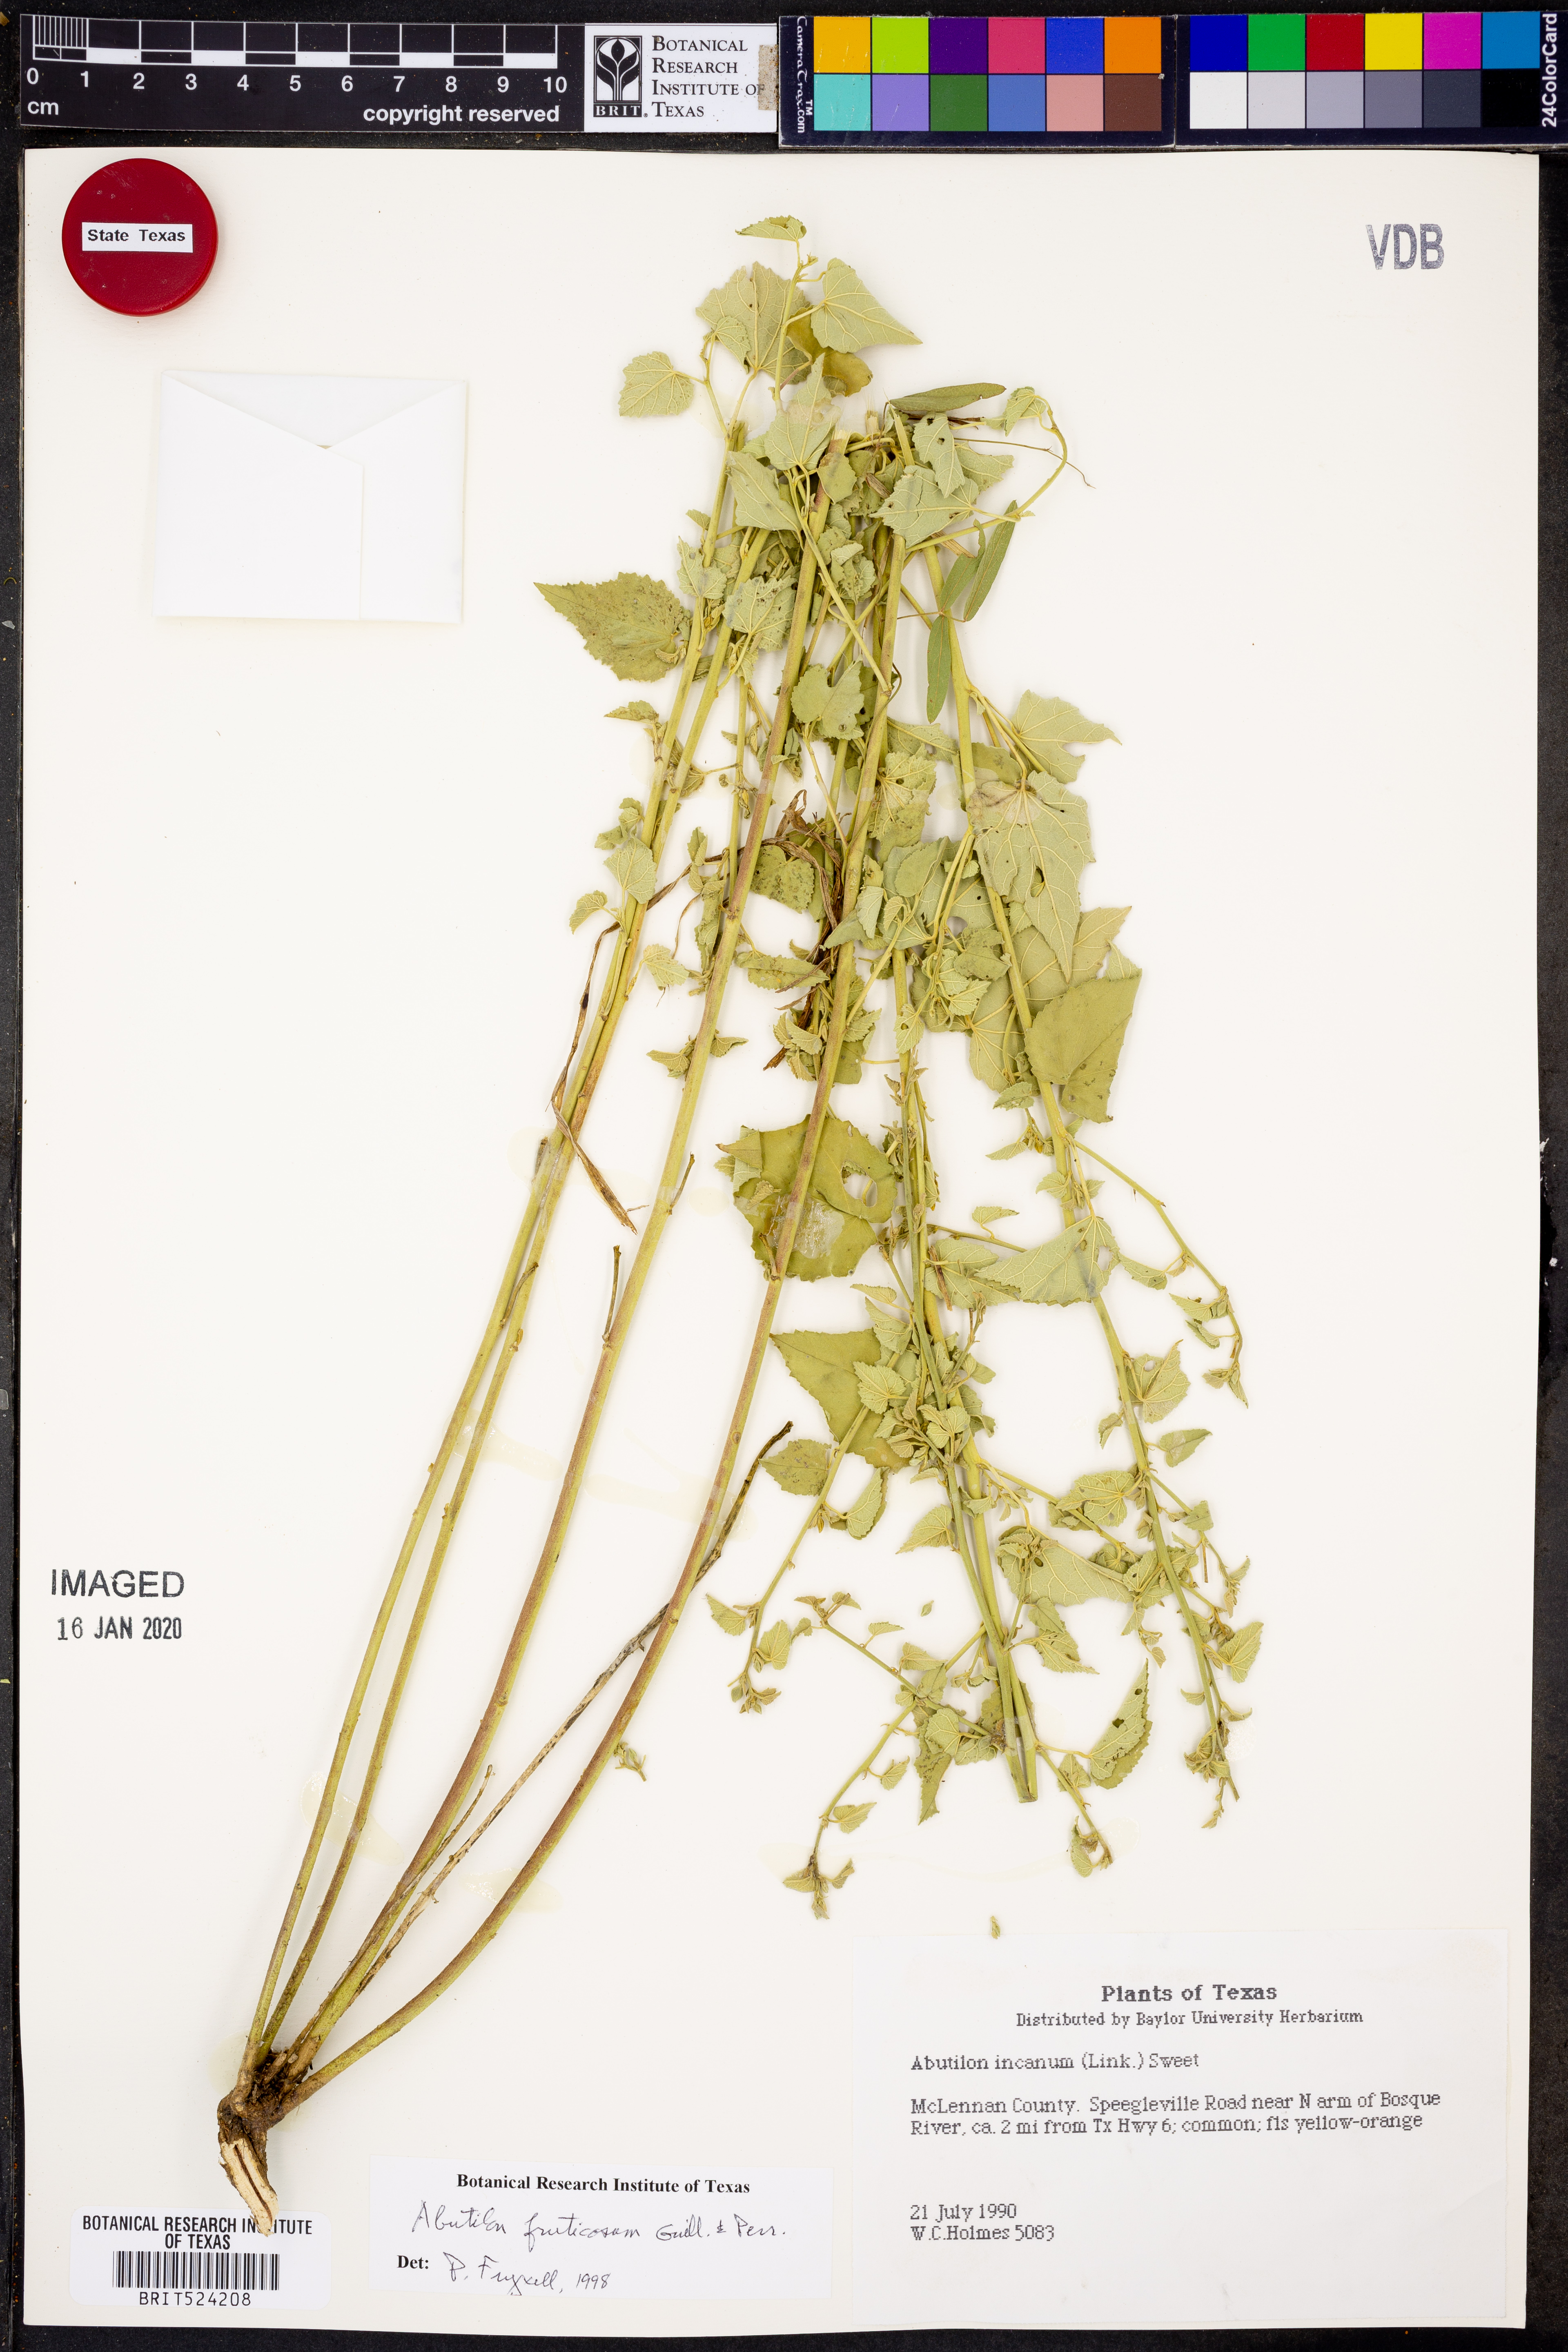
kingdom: Plantae
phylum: Tracheophyta
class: Magnoliopsida
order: Malvales
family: Malvaceae
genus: Abutilon
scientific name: Abutilon fruticosum
